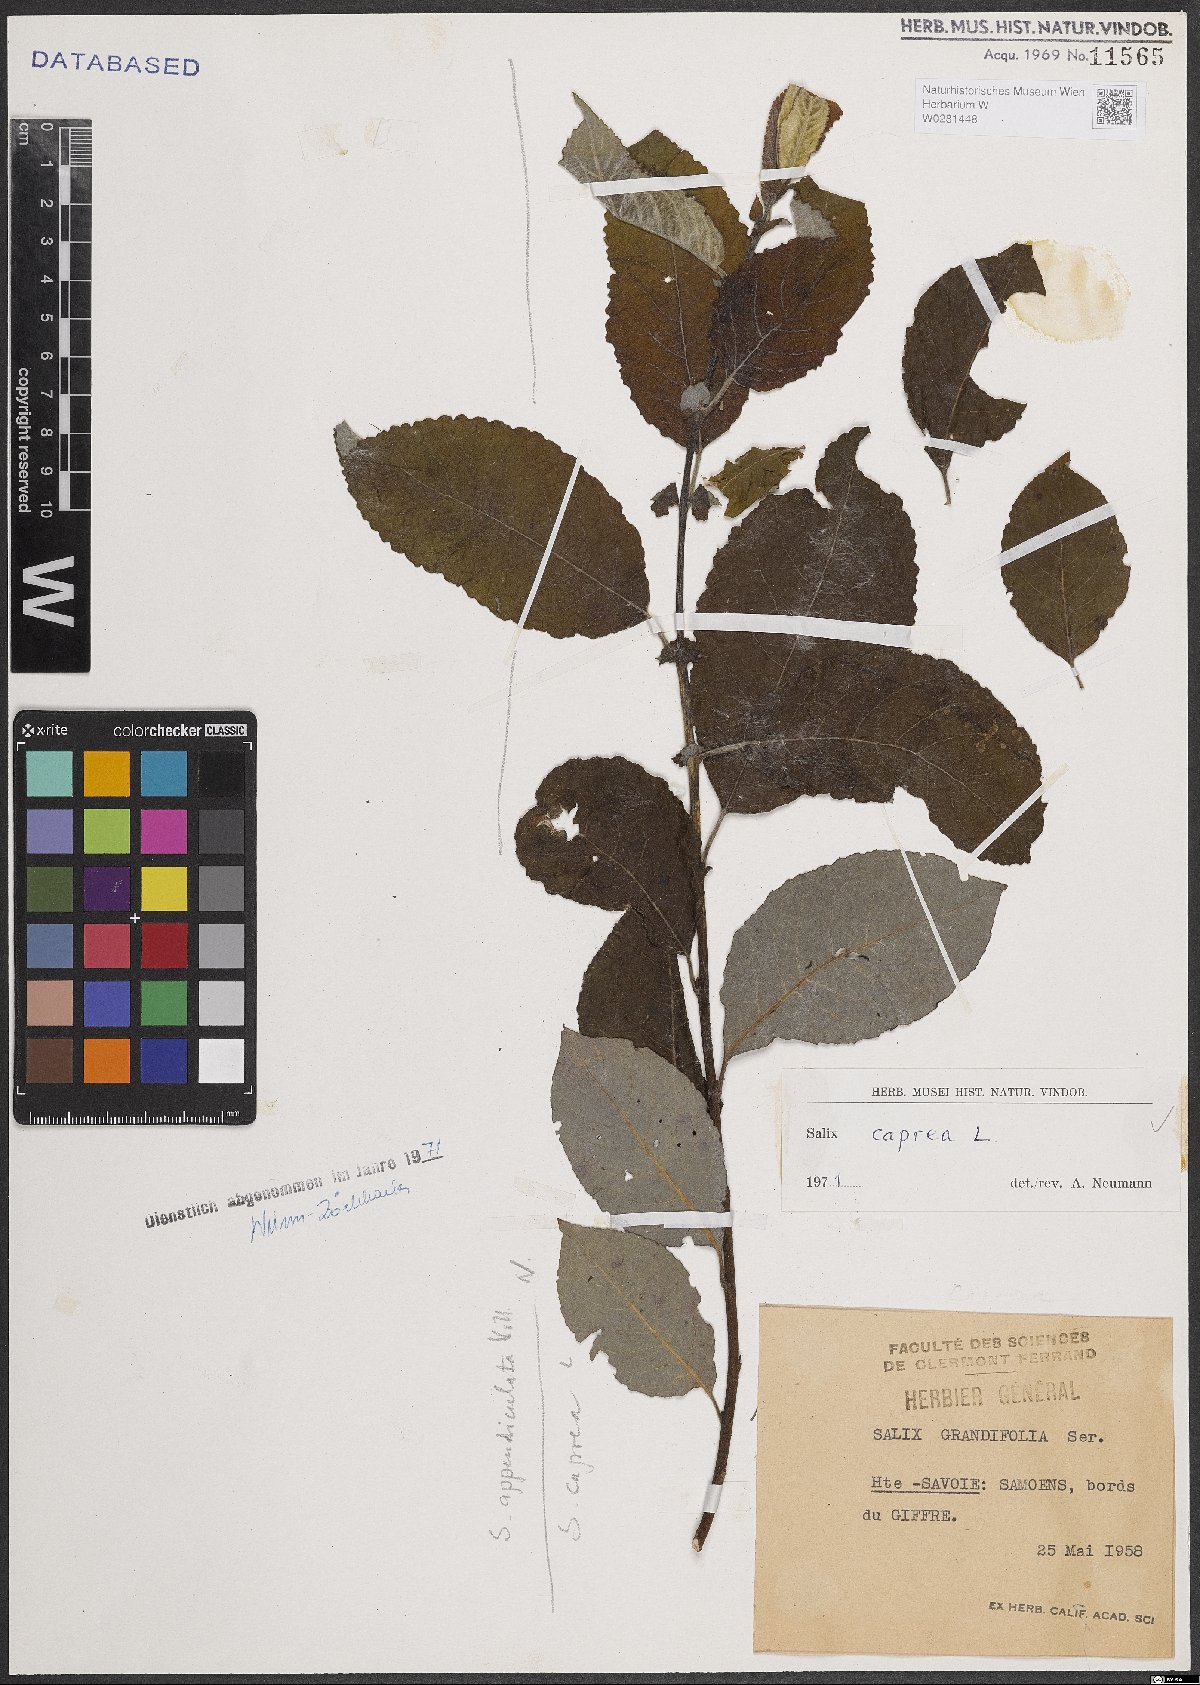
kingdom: Plantae
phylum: Tracheophyta
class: Magnoliopsida
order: Malpighiales
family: Salicaceae
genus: Salix
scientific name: Salix caprea
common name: Goat willow
